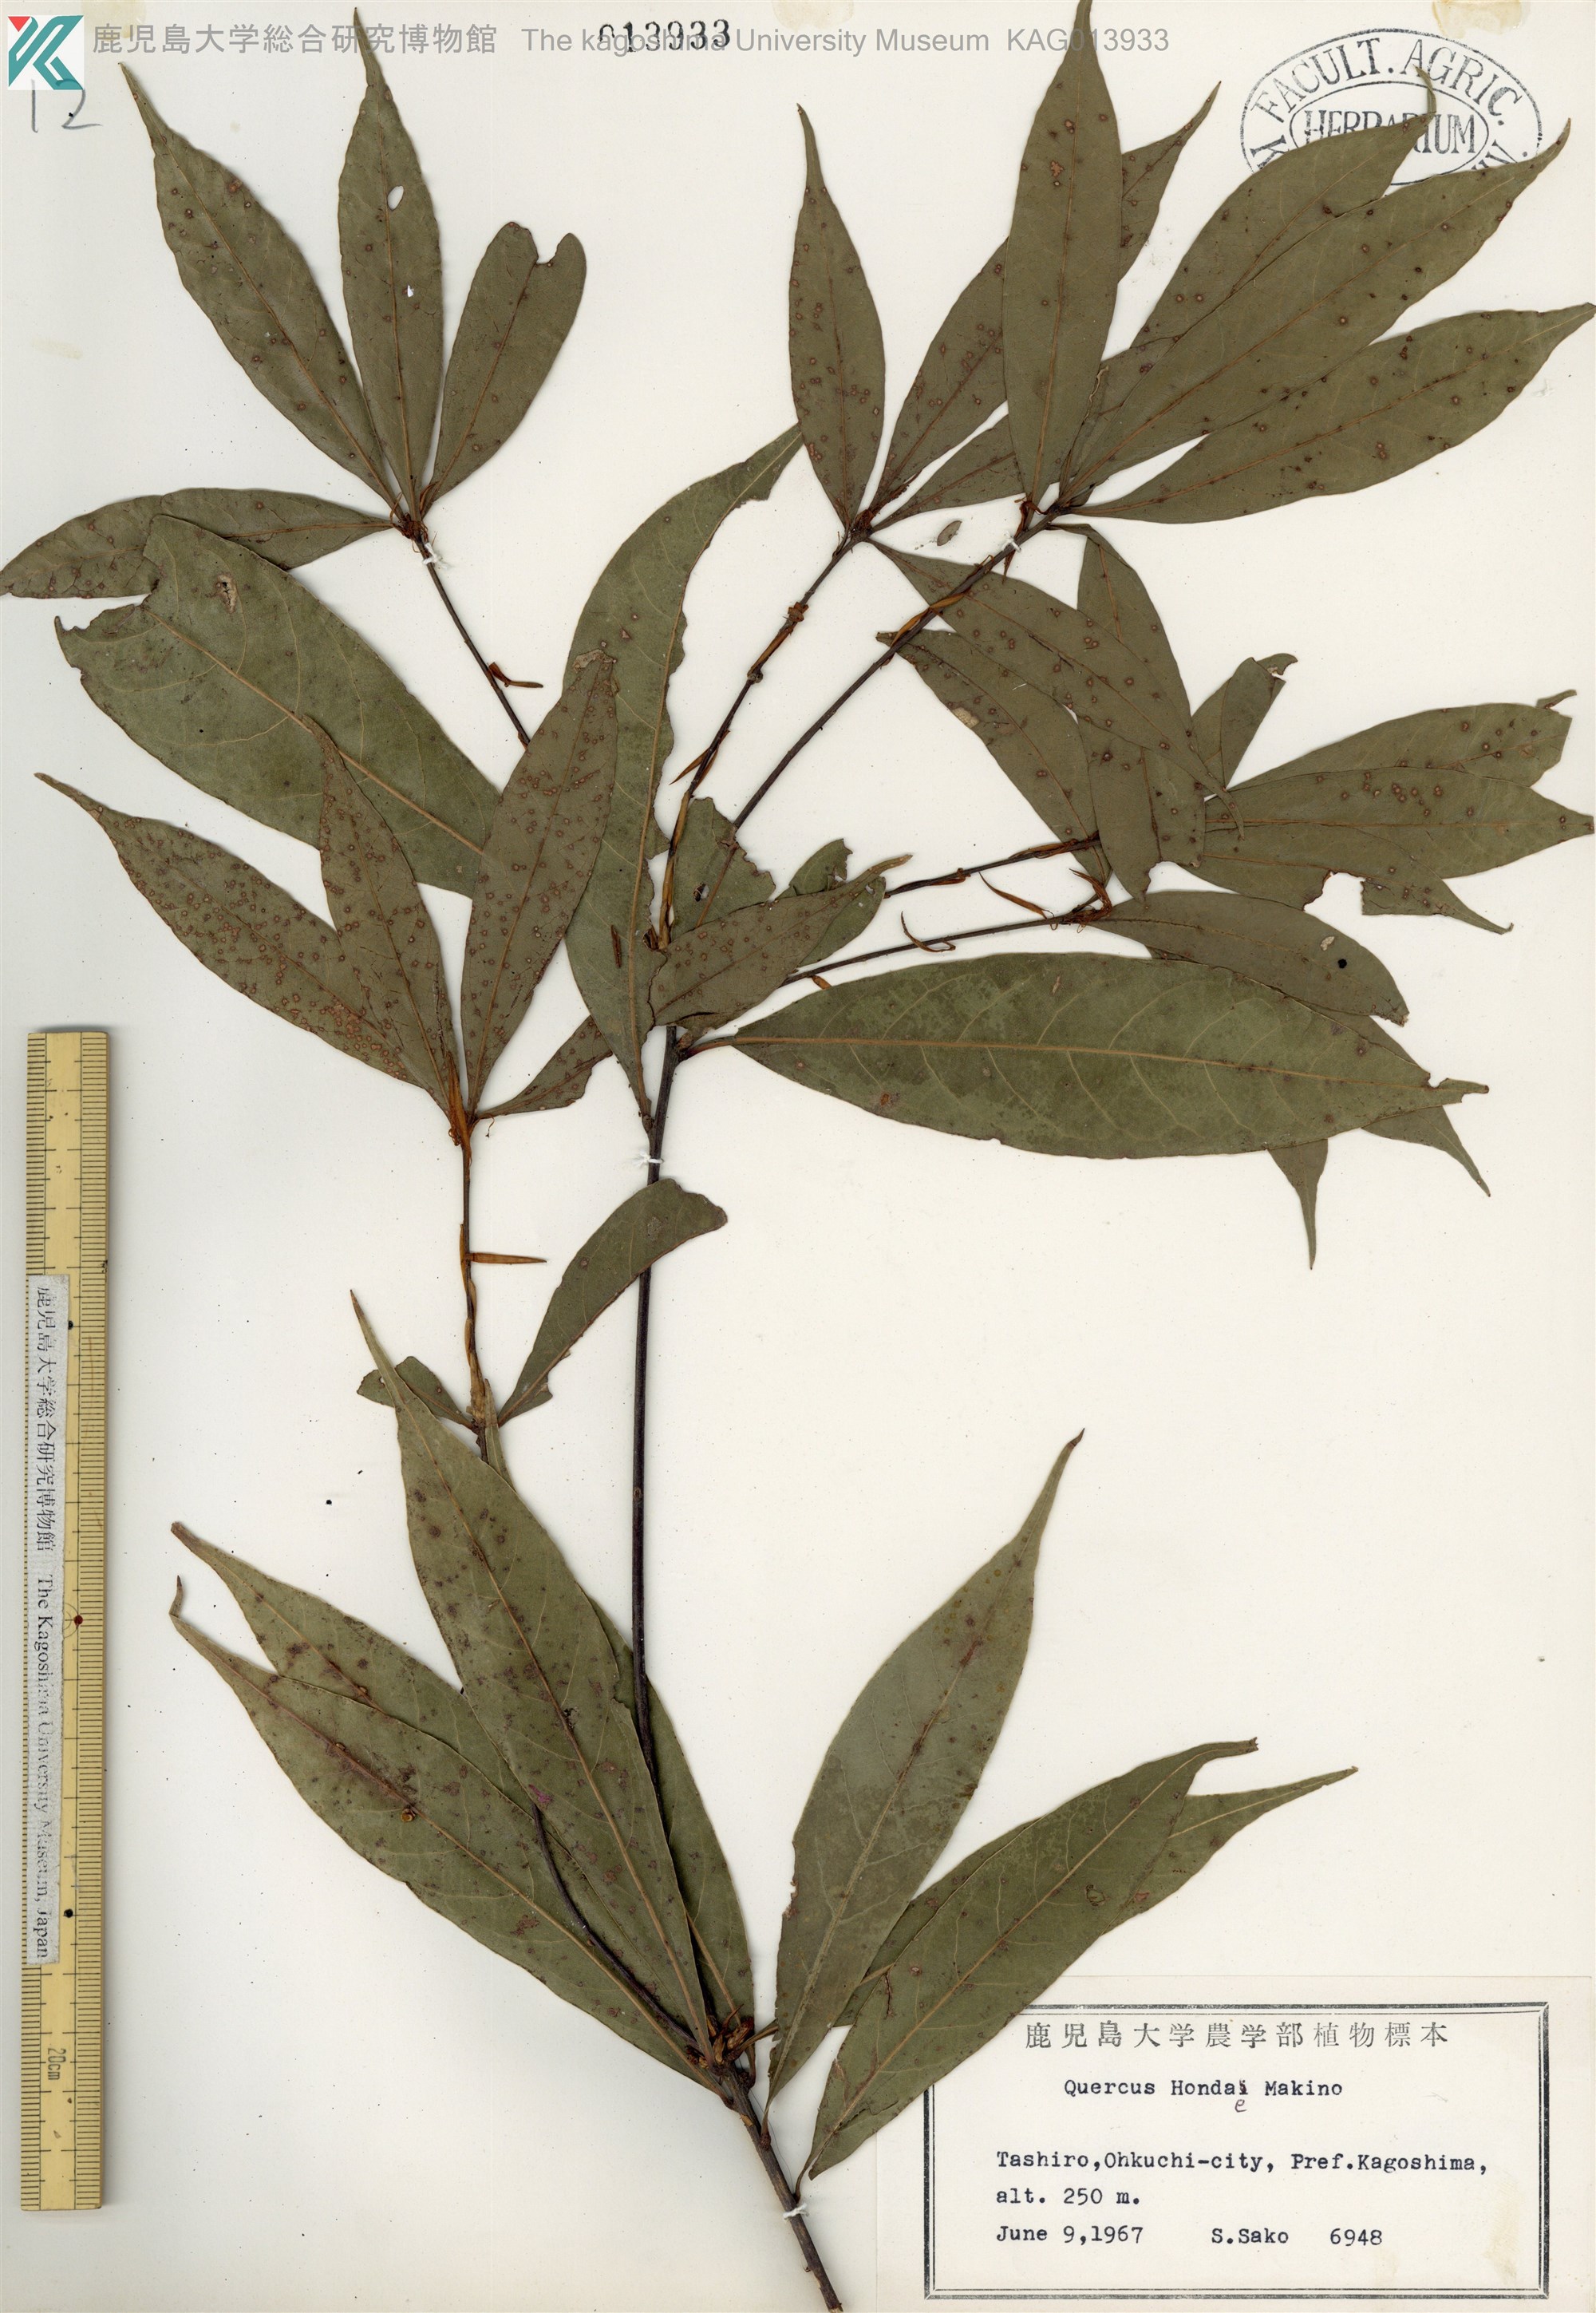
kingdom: Plantae
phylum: Tracheophyta
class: Magnoliopsida
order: Fagales
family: Fagaceae
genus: Quercus
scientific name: Quercus hondae
